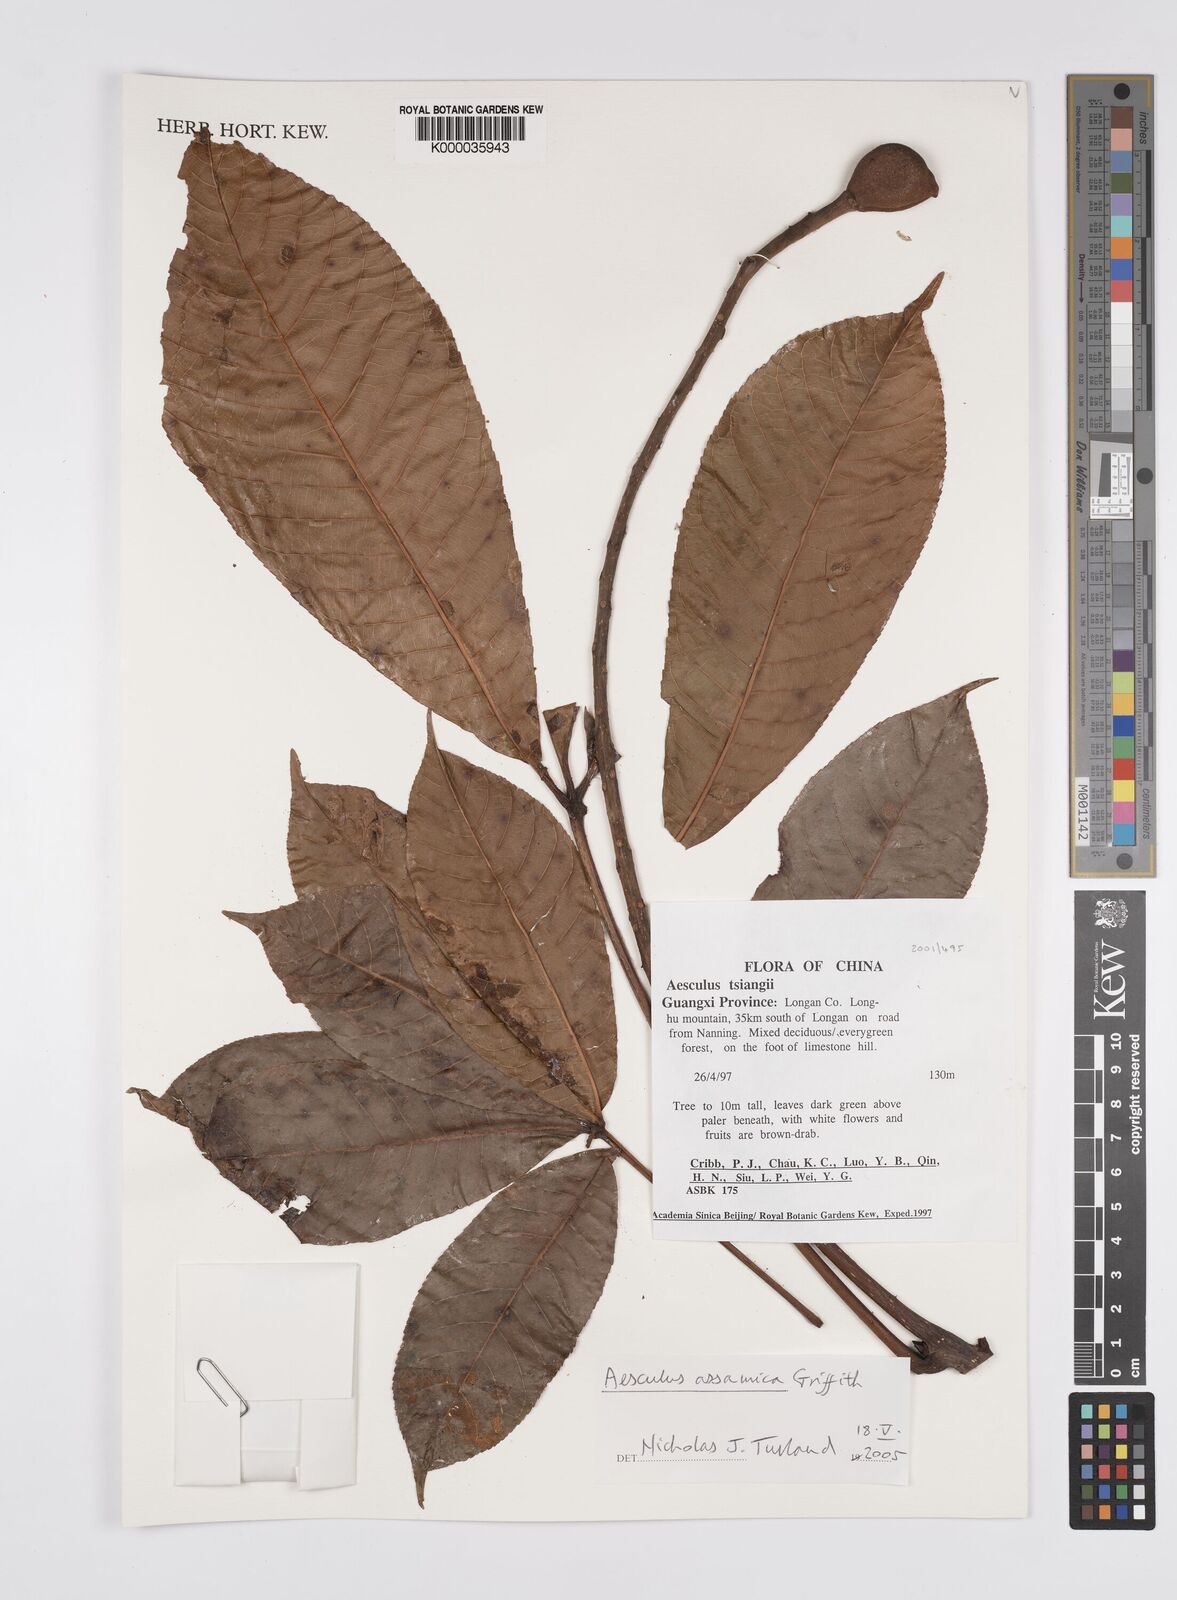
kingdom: Plantae
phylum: Tracheophyta
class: Magnoliopsida
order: Sapindales
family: Sapindaceae
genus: Aesculus
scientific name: Aesculus assamica
